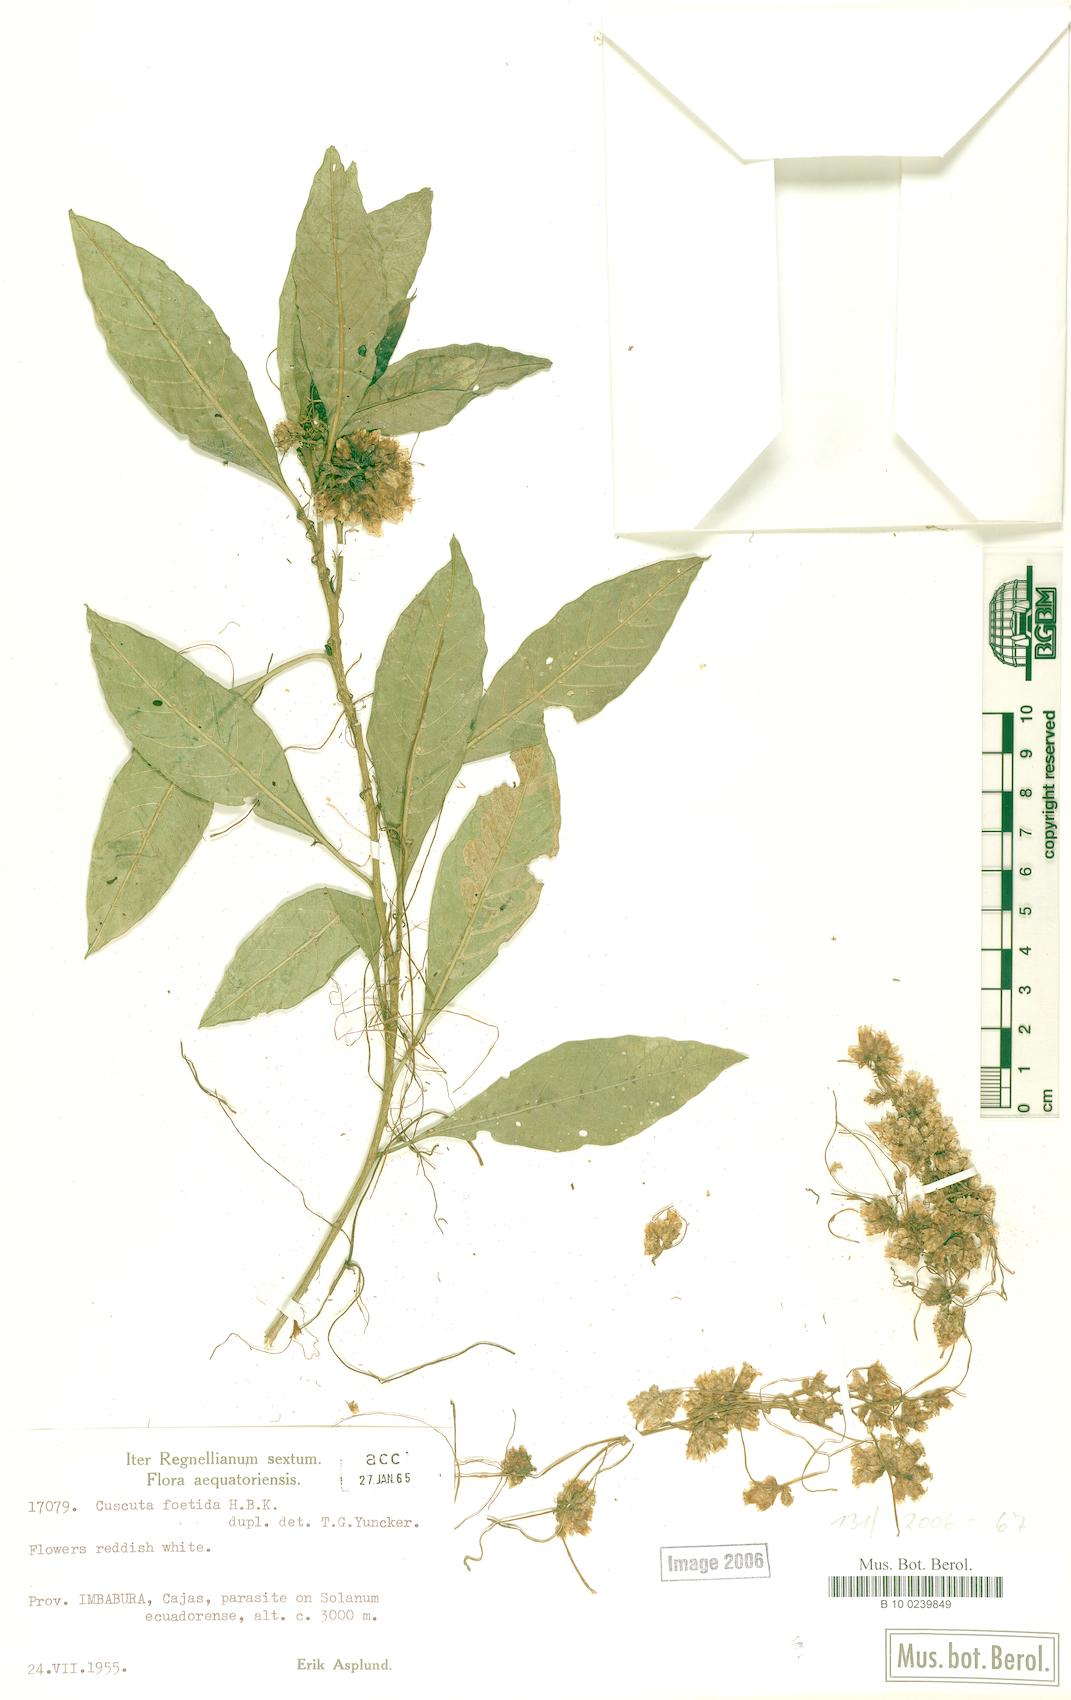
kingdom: Plantae
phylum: Tracheophyta
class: Magnoliopsida
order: Solanales
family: Convolvulaceae
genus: Cuscuta
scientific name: Cuscuta foetida
